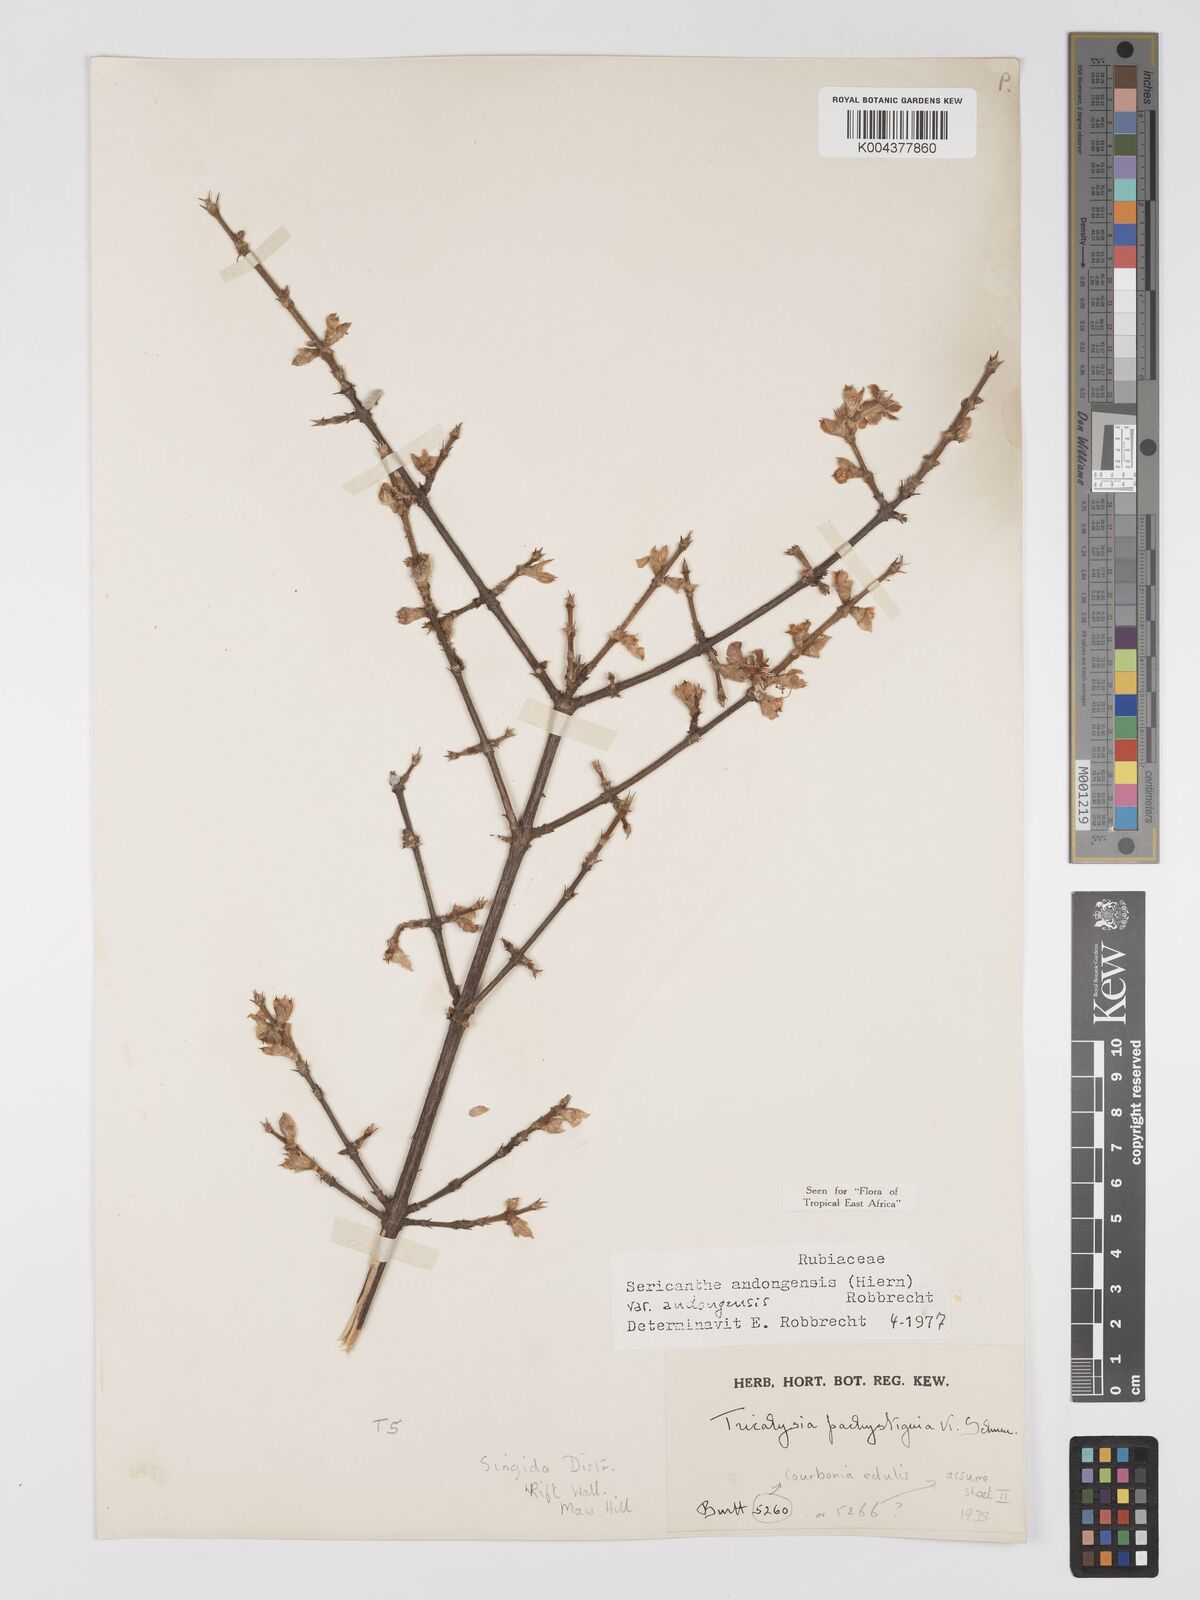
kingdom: Plantae
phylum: Tracheophyta
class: Magnoliopsida
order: Gentianales
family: Rubiaceae
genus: Sericanthe
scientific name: Sericanthe andongensis
